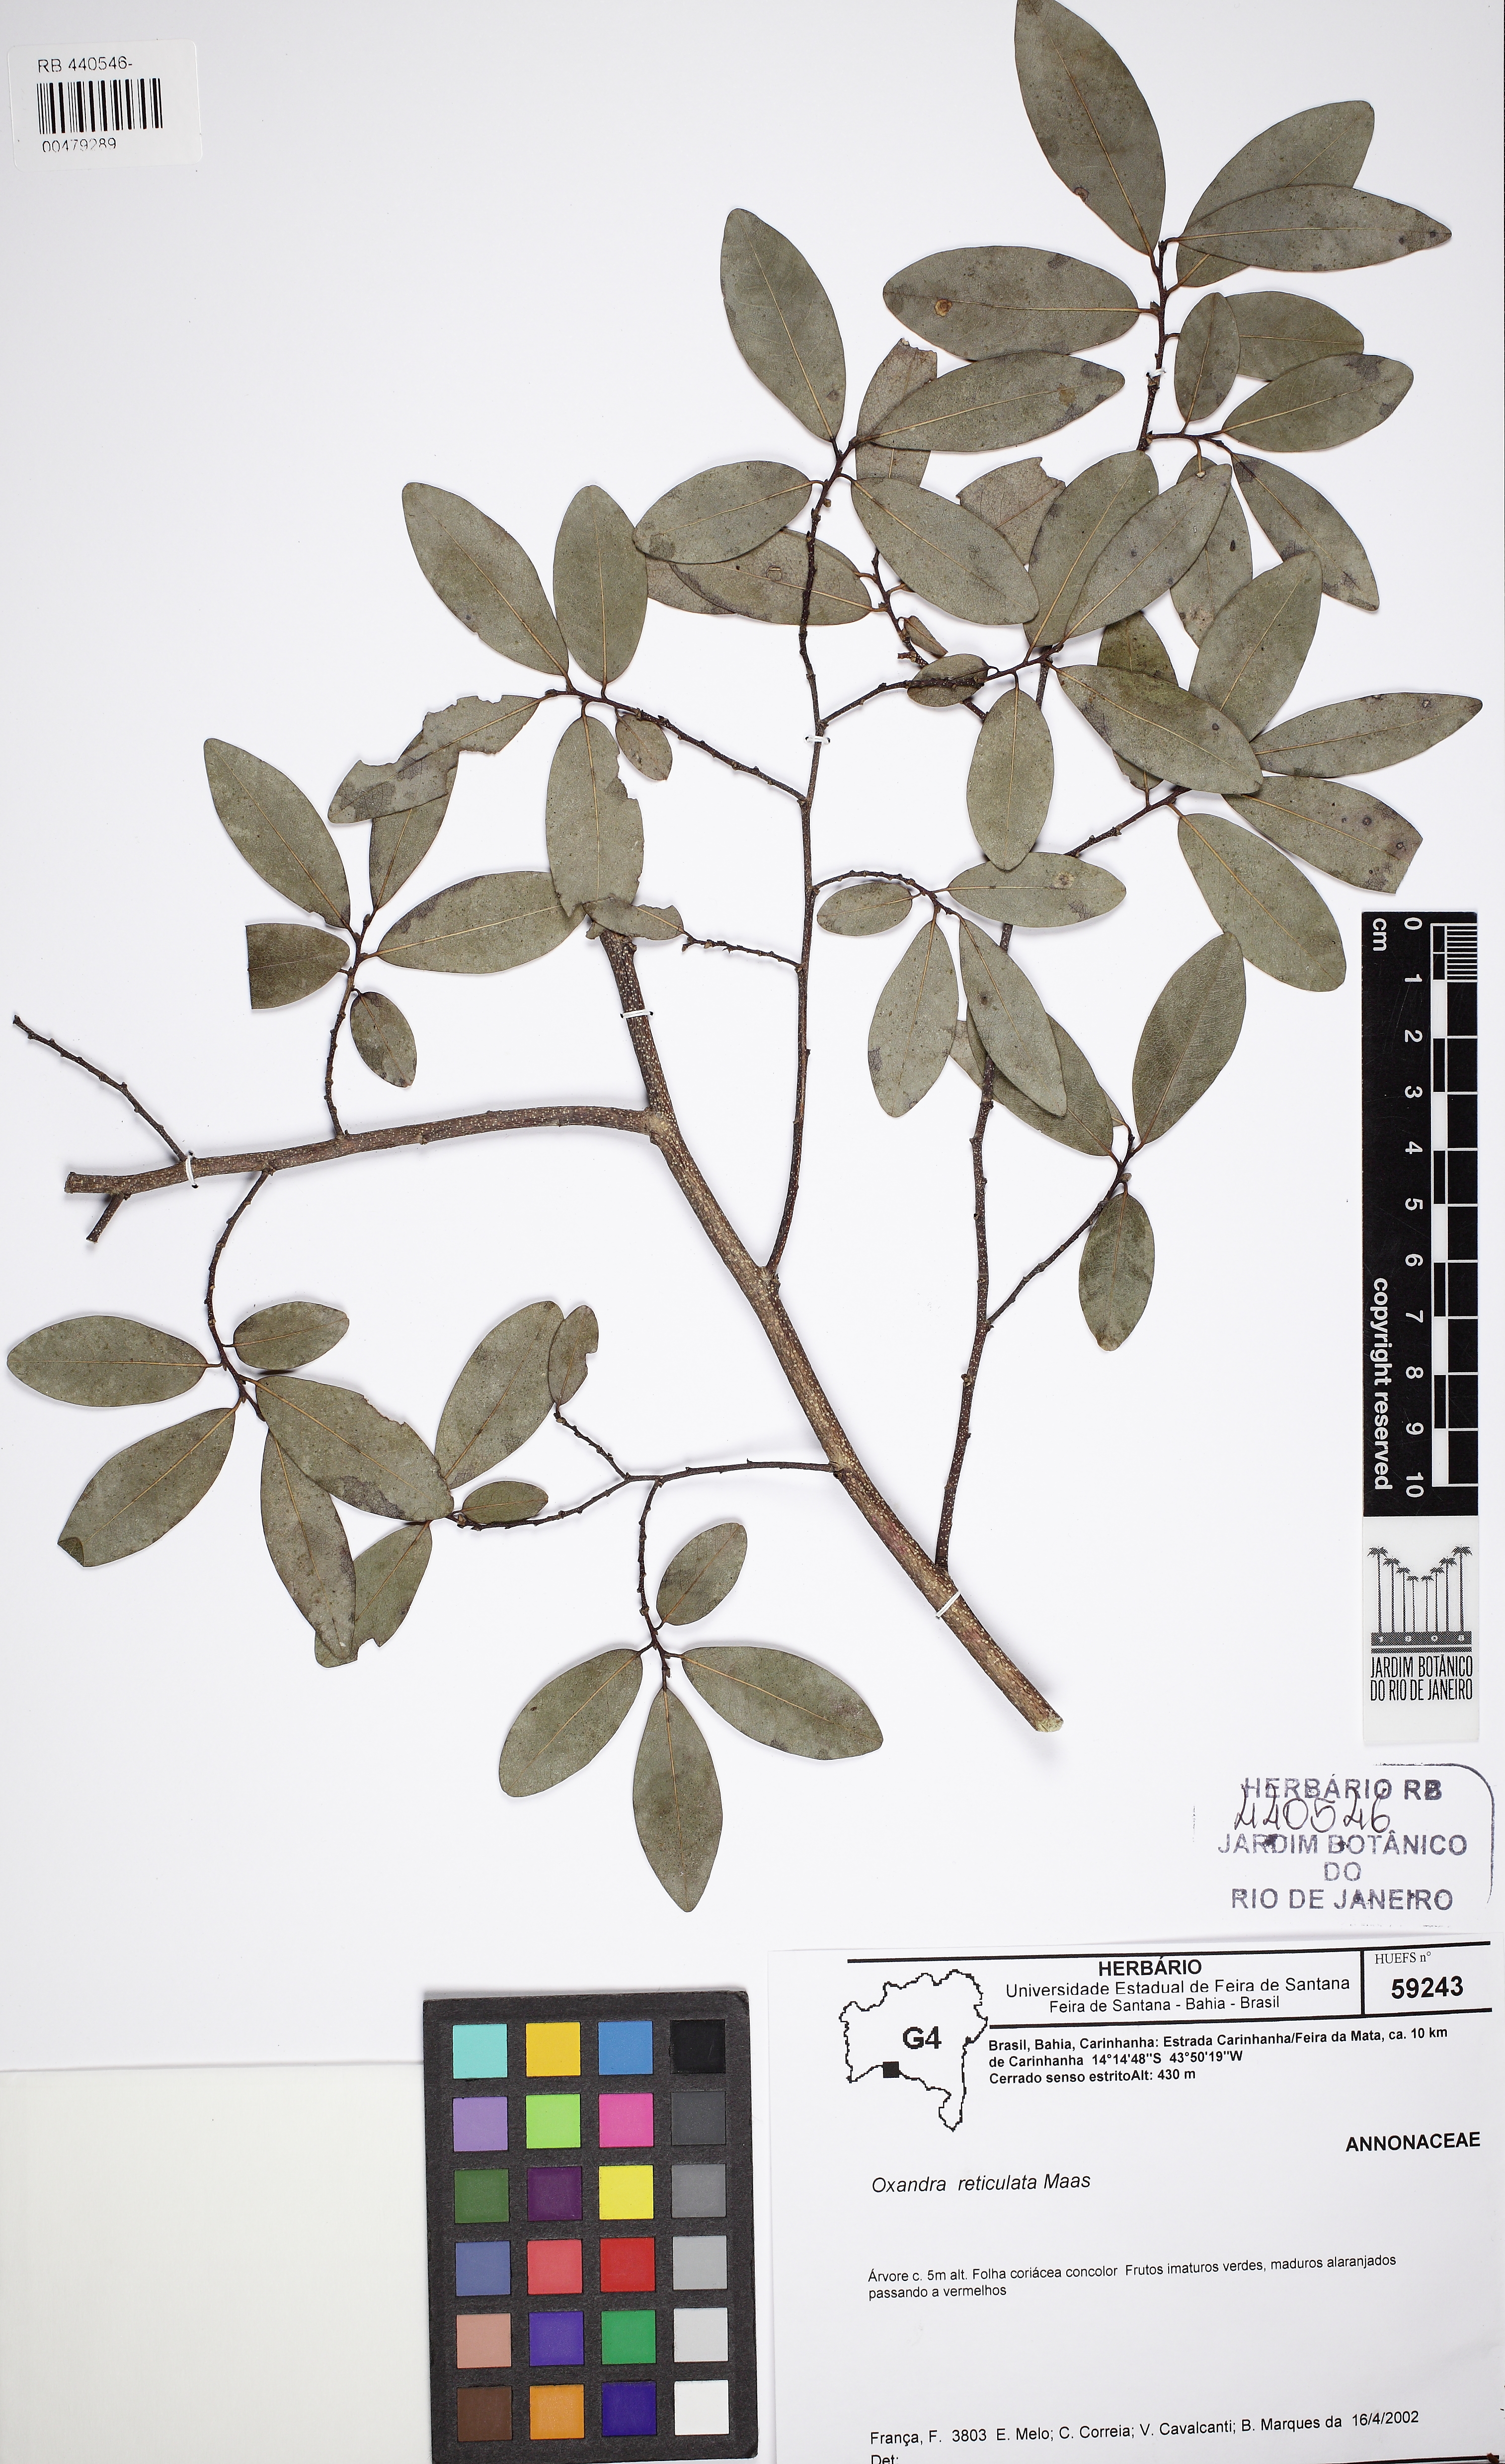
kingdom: Plantae
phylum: Tracheophyta
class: Magnoliopsida
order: Magnoliales
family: Annonaceae
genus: Oxandra
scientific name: Oxandra reticulata
